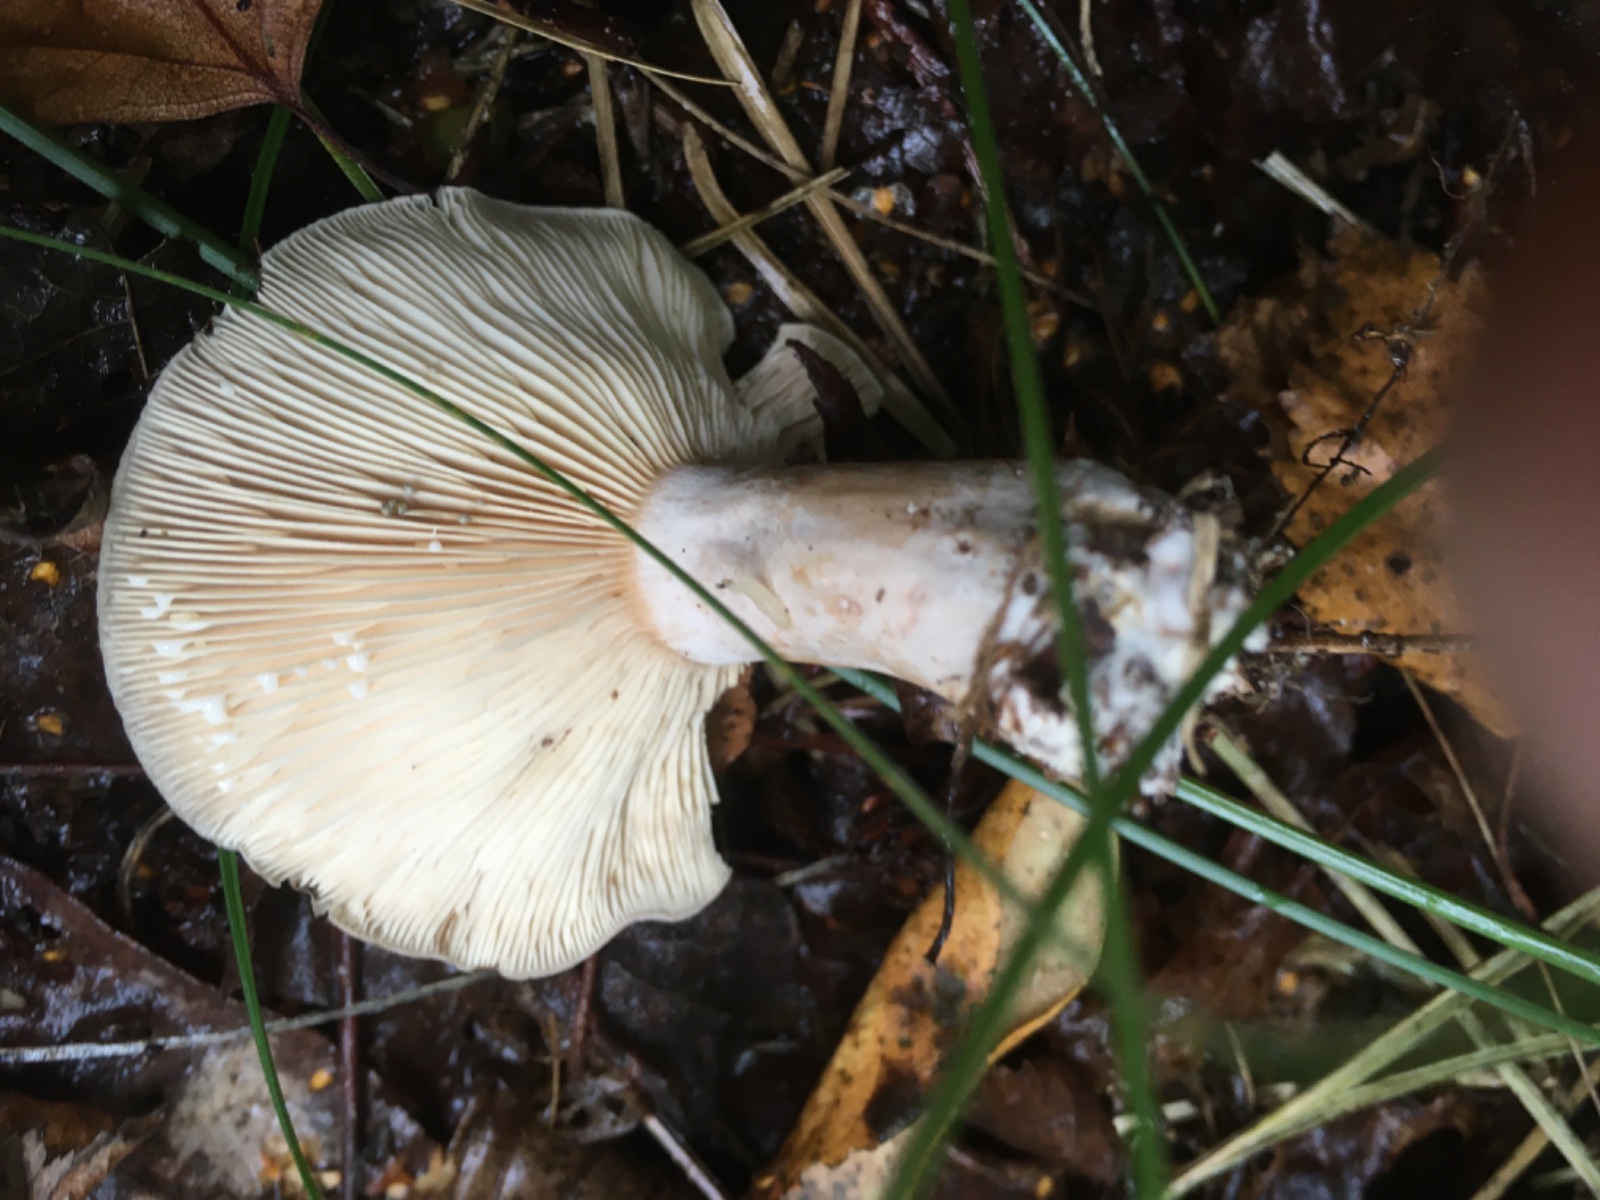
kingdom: Fungi
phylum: Basidiomycota
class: Agaricomycetes
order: Russulales
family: Russulaceae
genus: Lactarius
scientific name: Lactarius vietus
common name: violetgrå mælkehat
